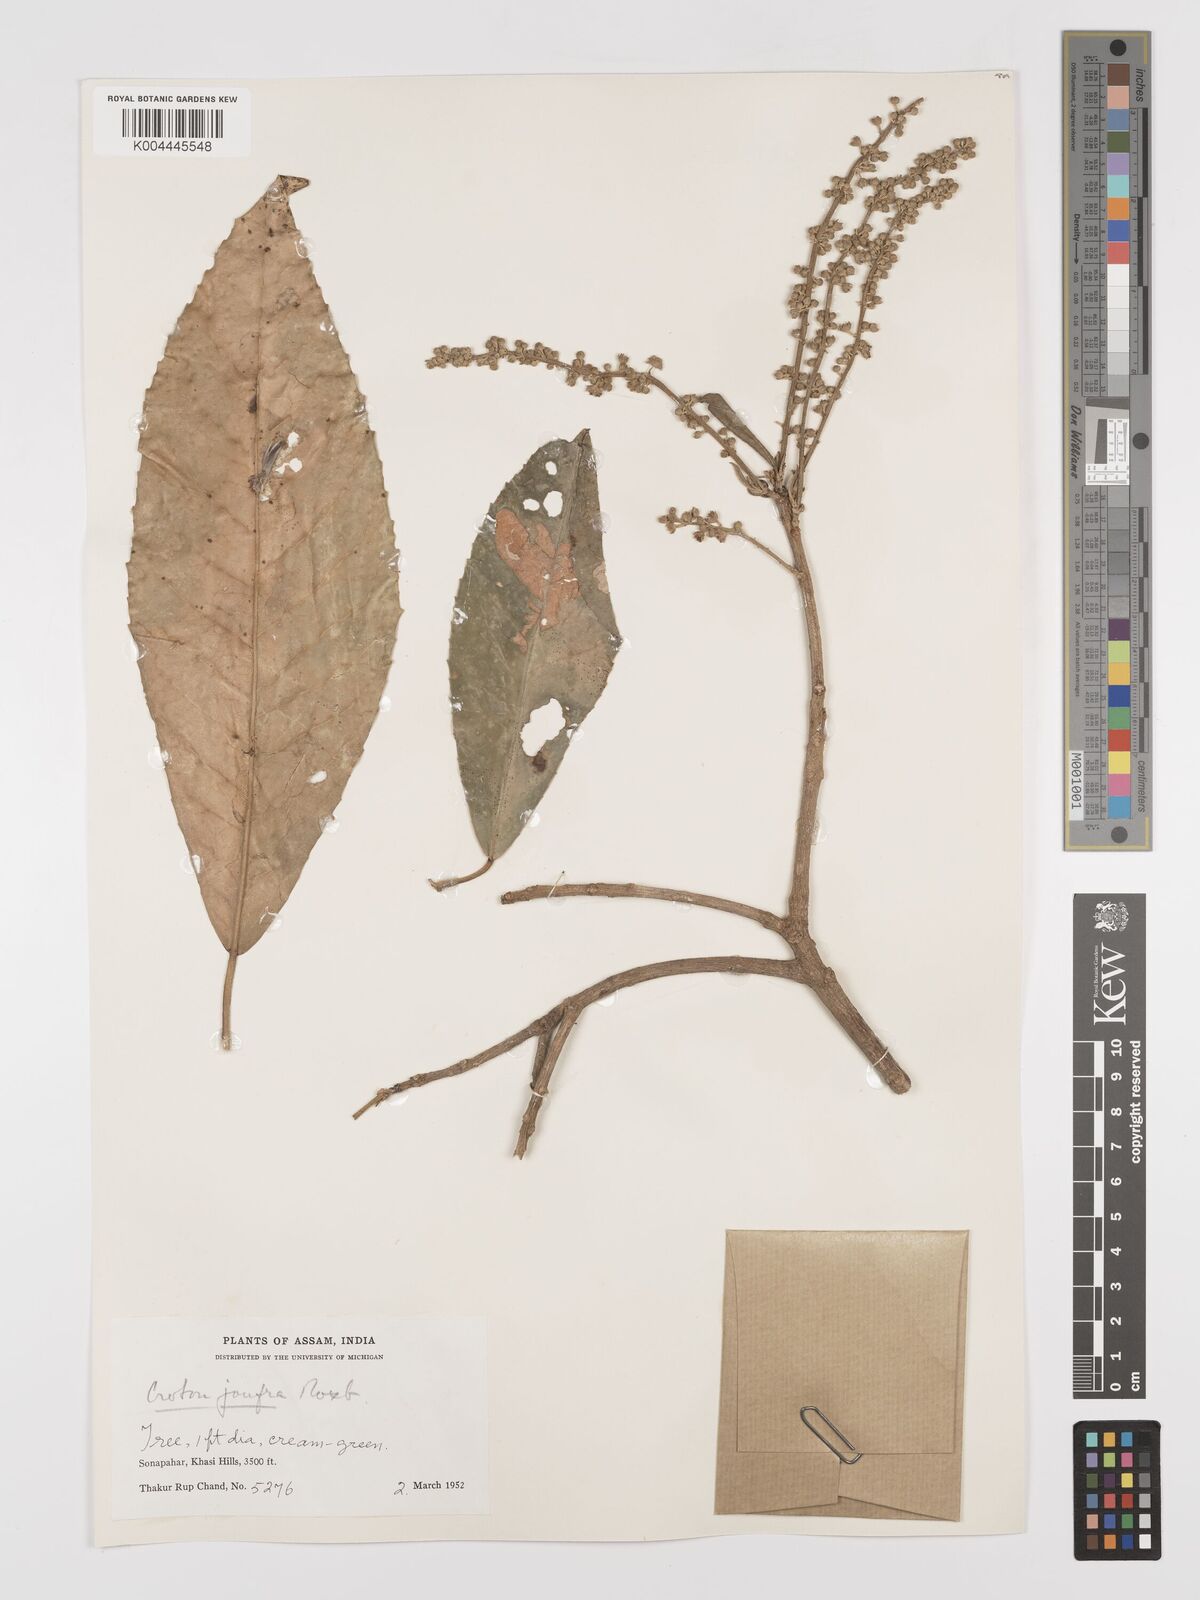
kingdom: Plantae
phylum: Tracheophyta
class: Magnoliopsida
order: Malpighiales
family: Euphorbiaceae
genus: Croton
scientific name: Croton joufra
